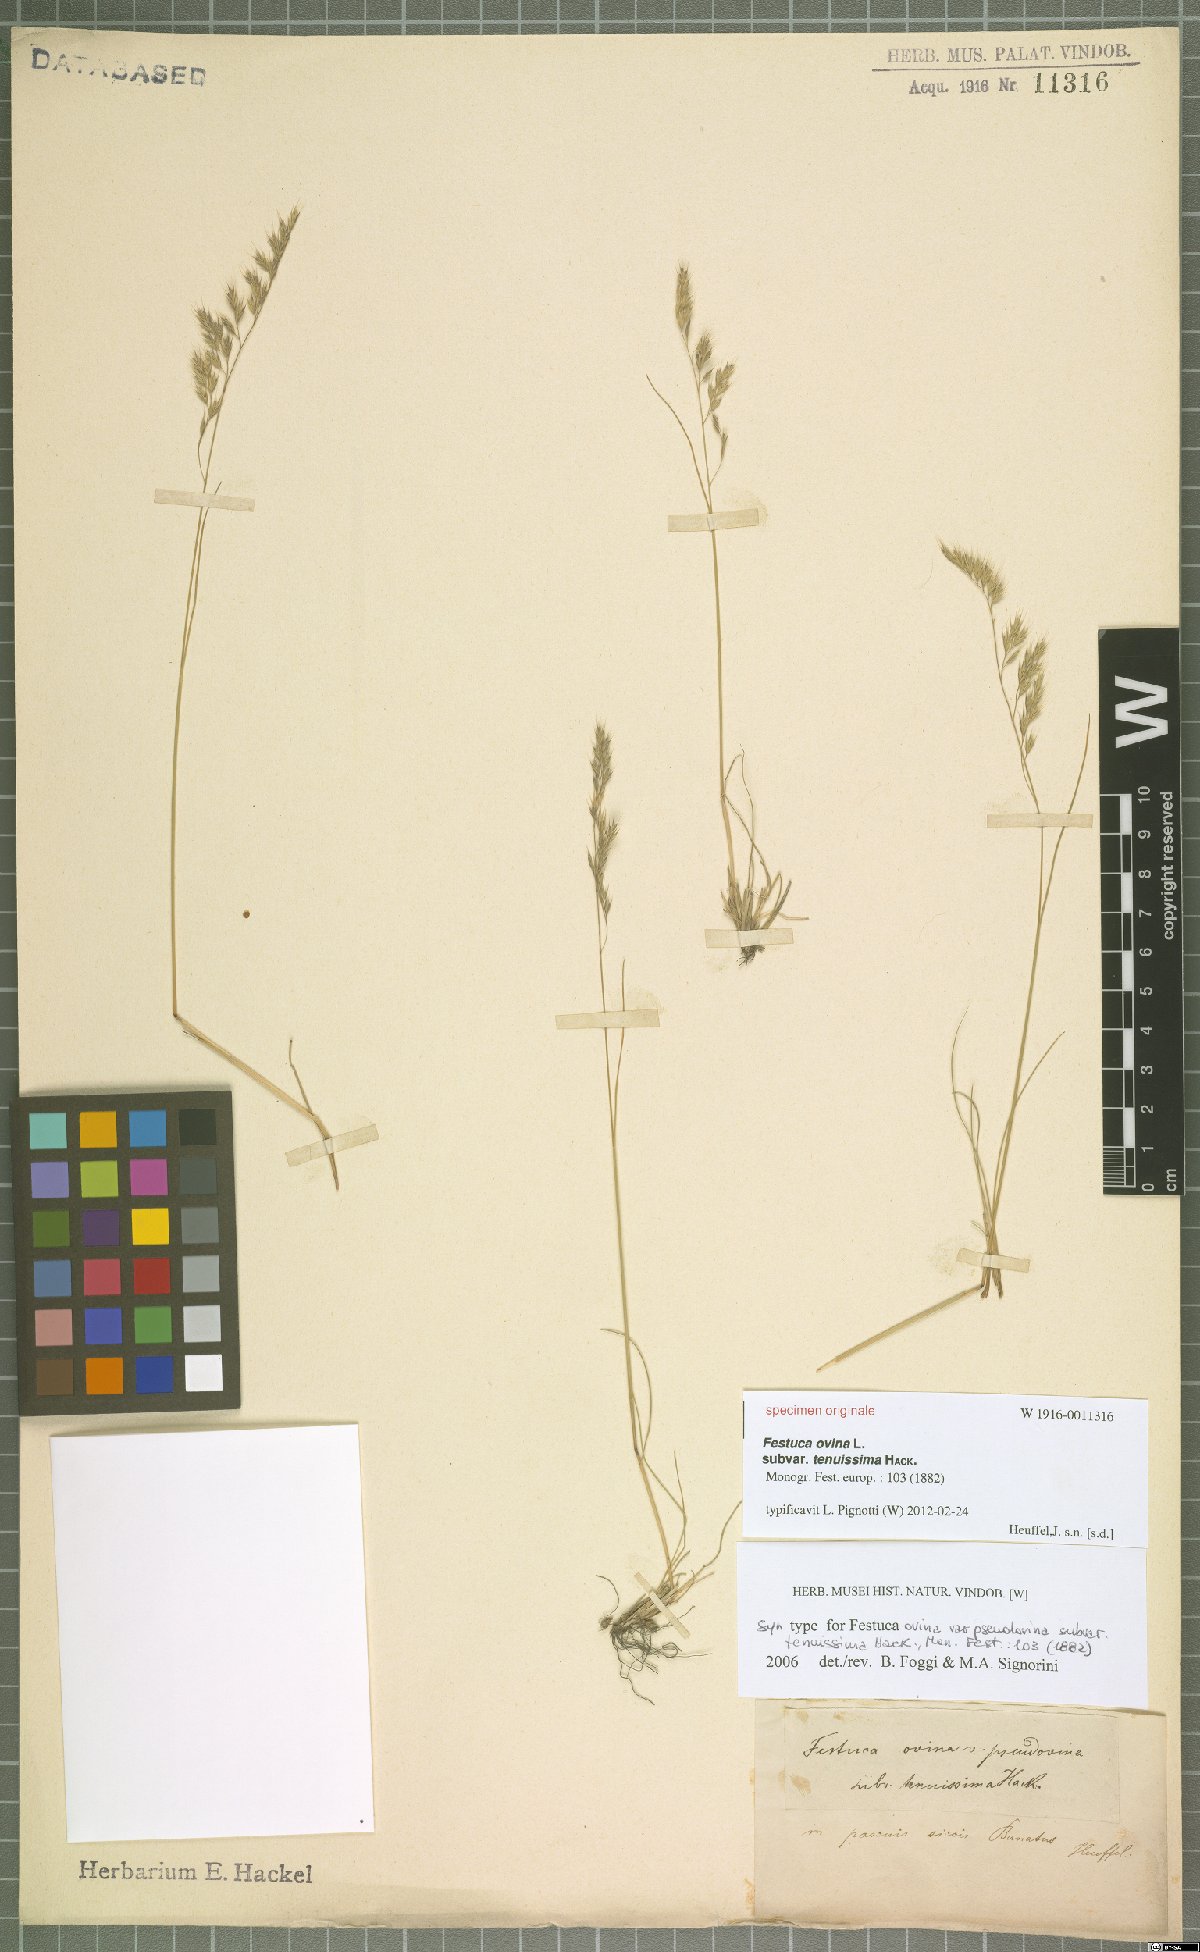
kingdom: Plantae
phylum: Tracheophyta
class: Liliopsida
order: Poales
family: Poaceae
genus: Festuca
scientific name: Festuca ovina
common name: Sheep fescue
